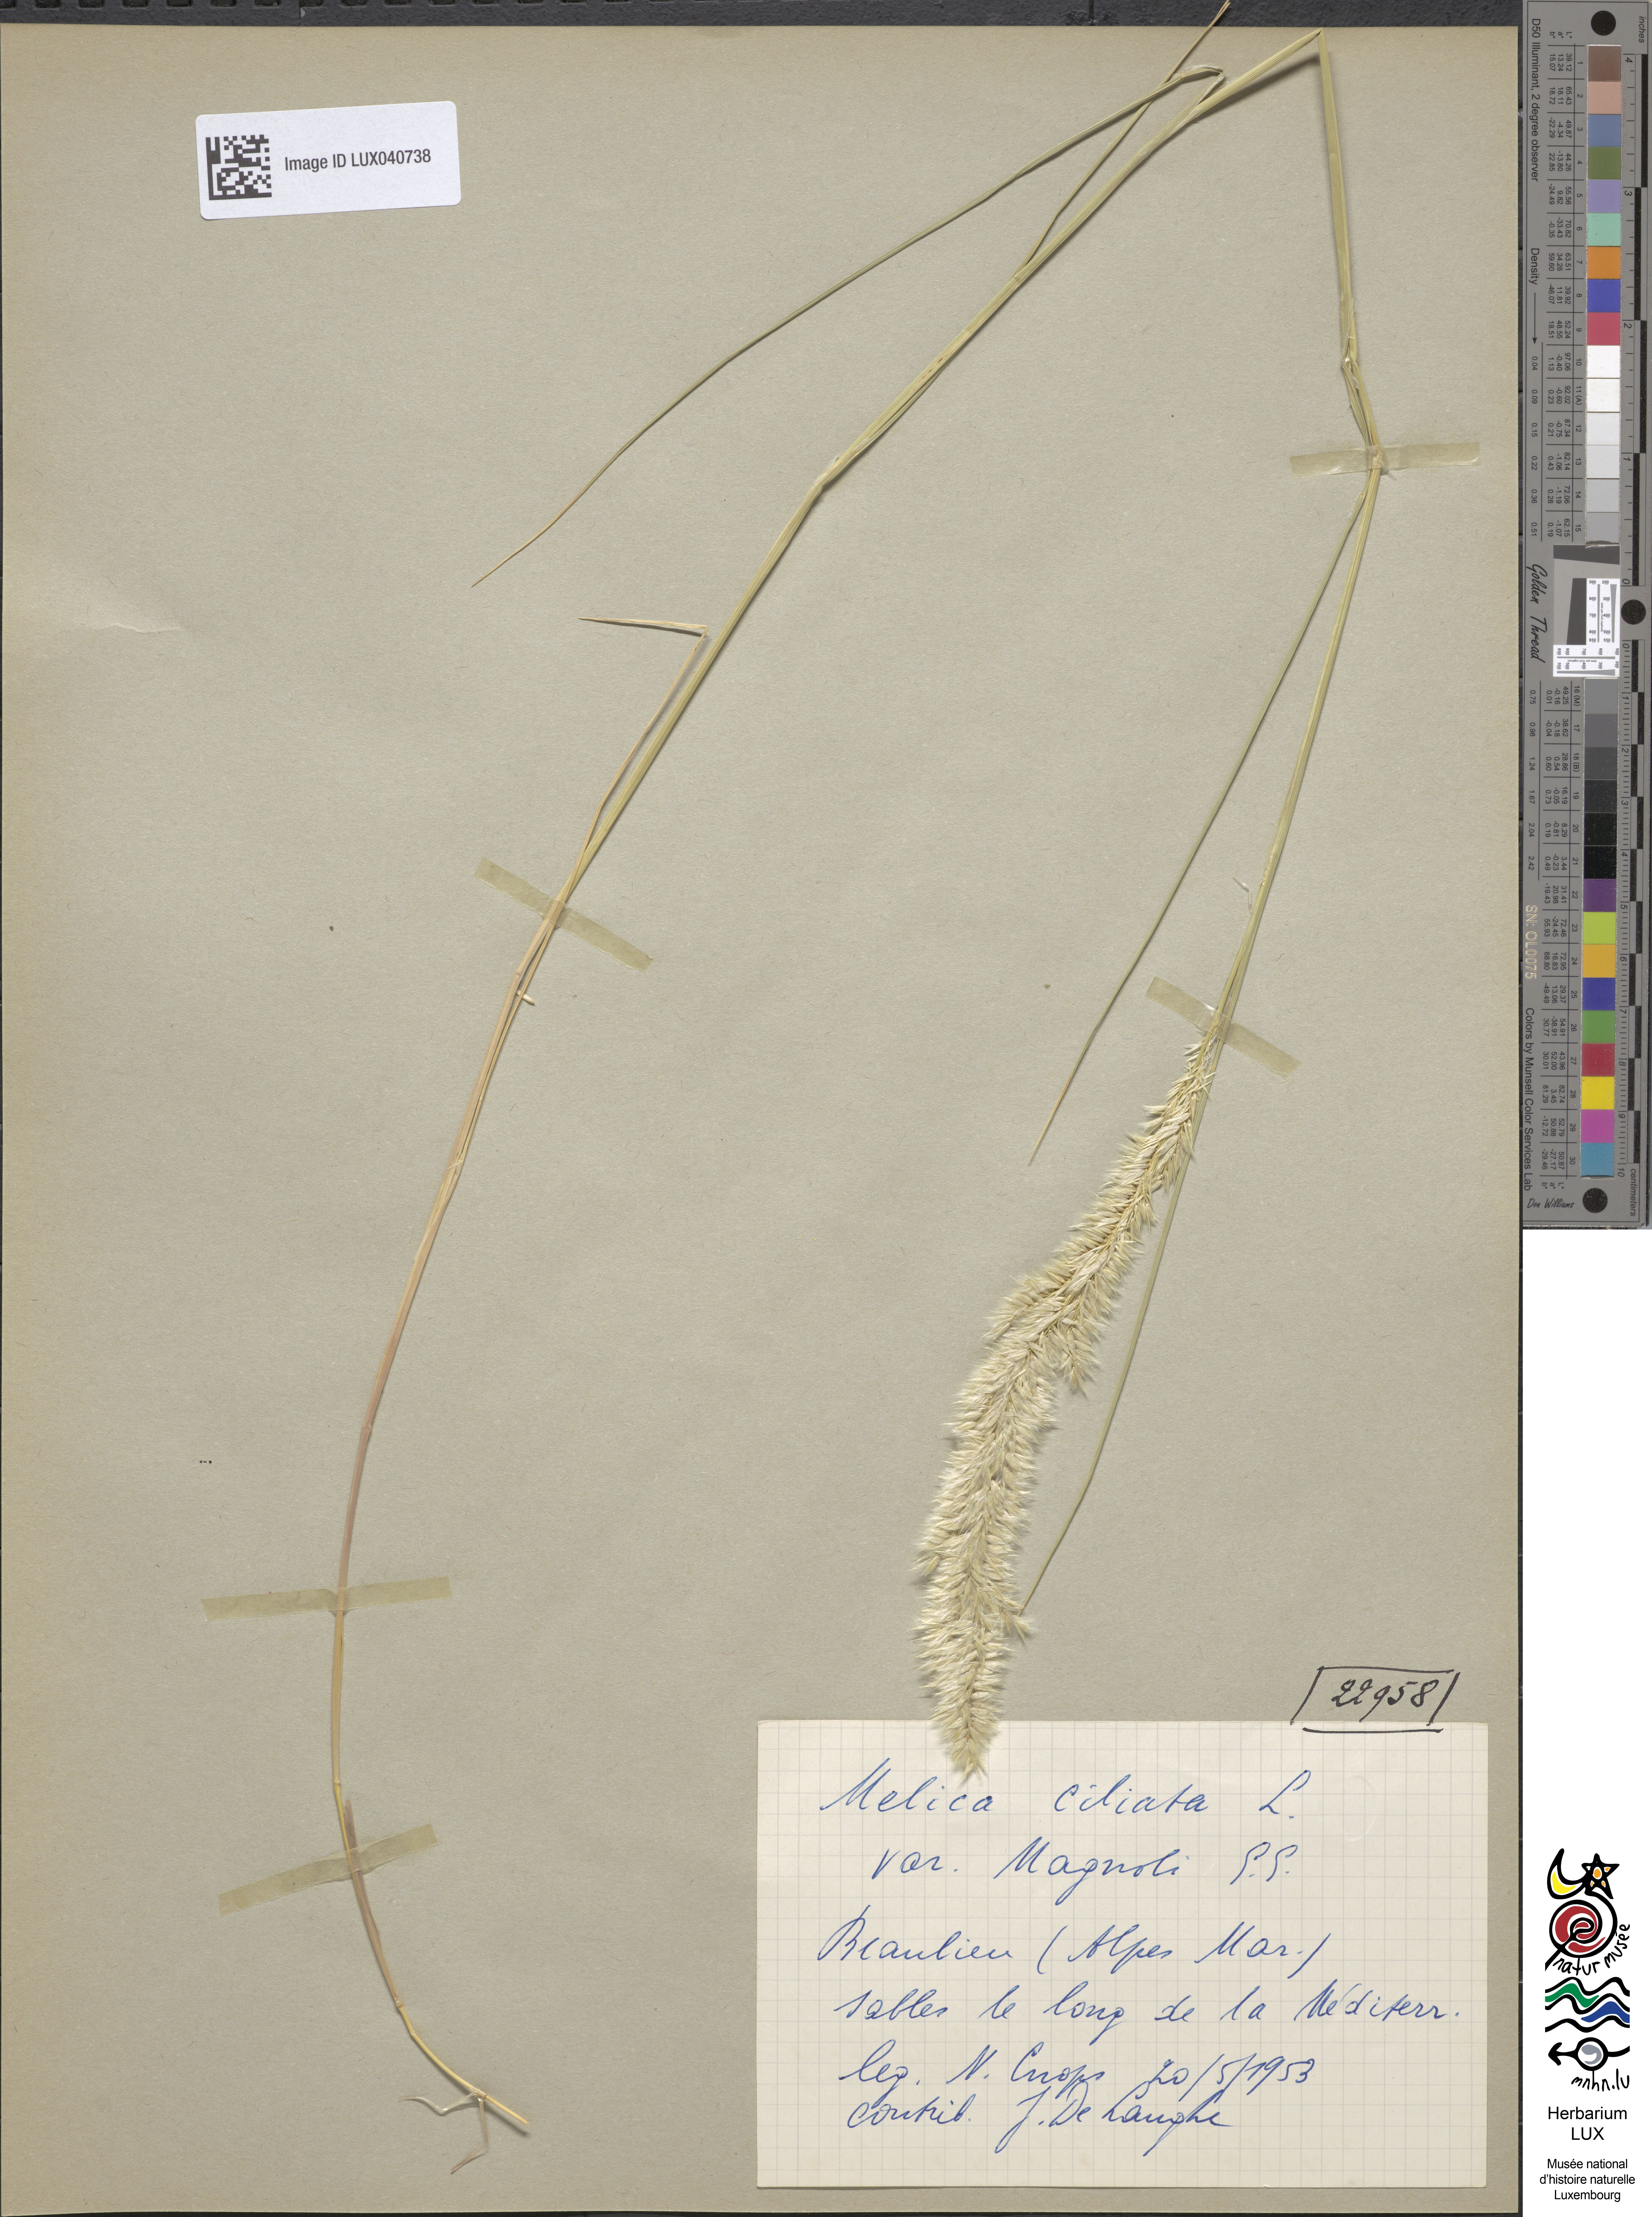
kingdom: Plantae
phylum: Tracheophyta
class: Liliopsida
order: Poales
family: Poaceae
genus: Melica
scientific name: Melica ciliata
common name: Hairy melicgrass
